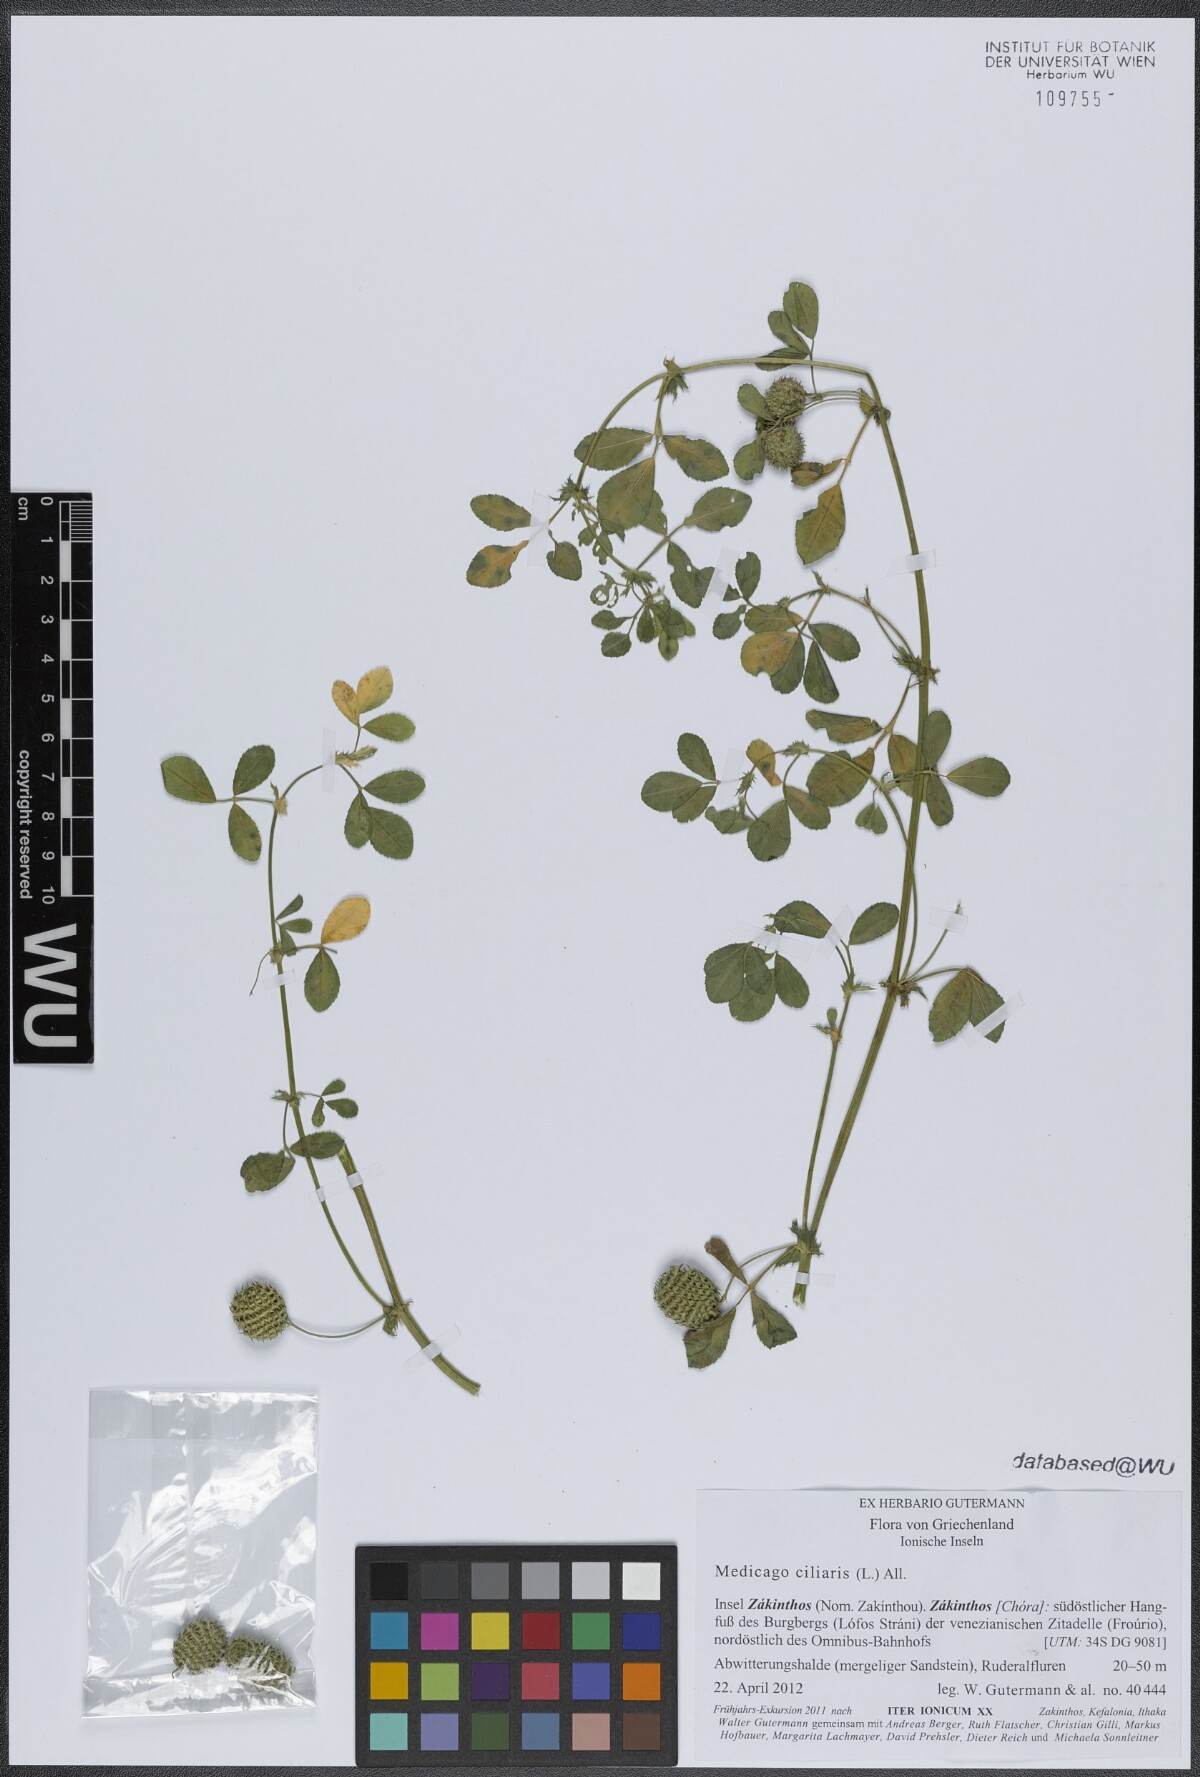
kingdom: Plantae
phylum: Tracheophyta
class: Magnoliopsida
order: Fabales
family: Fabaceae
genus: Medicago
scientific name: Medicago ciliaris
